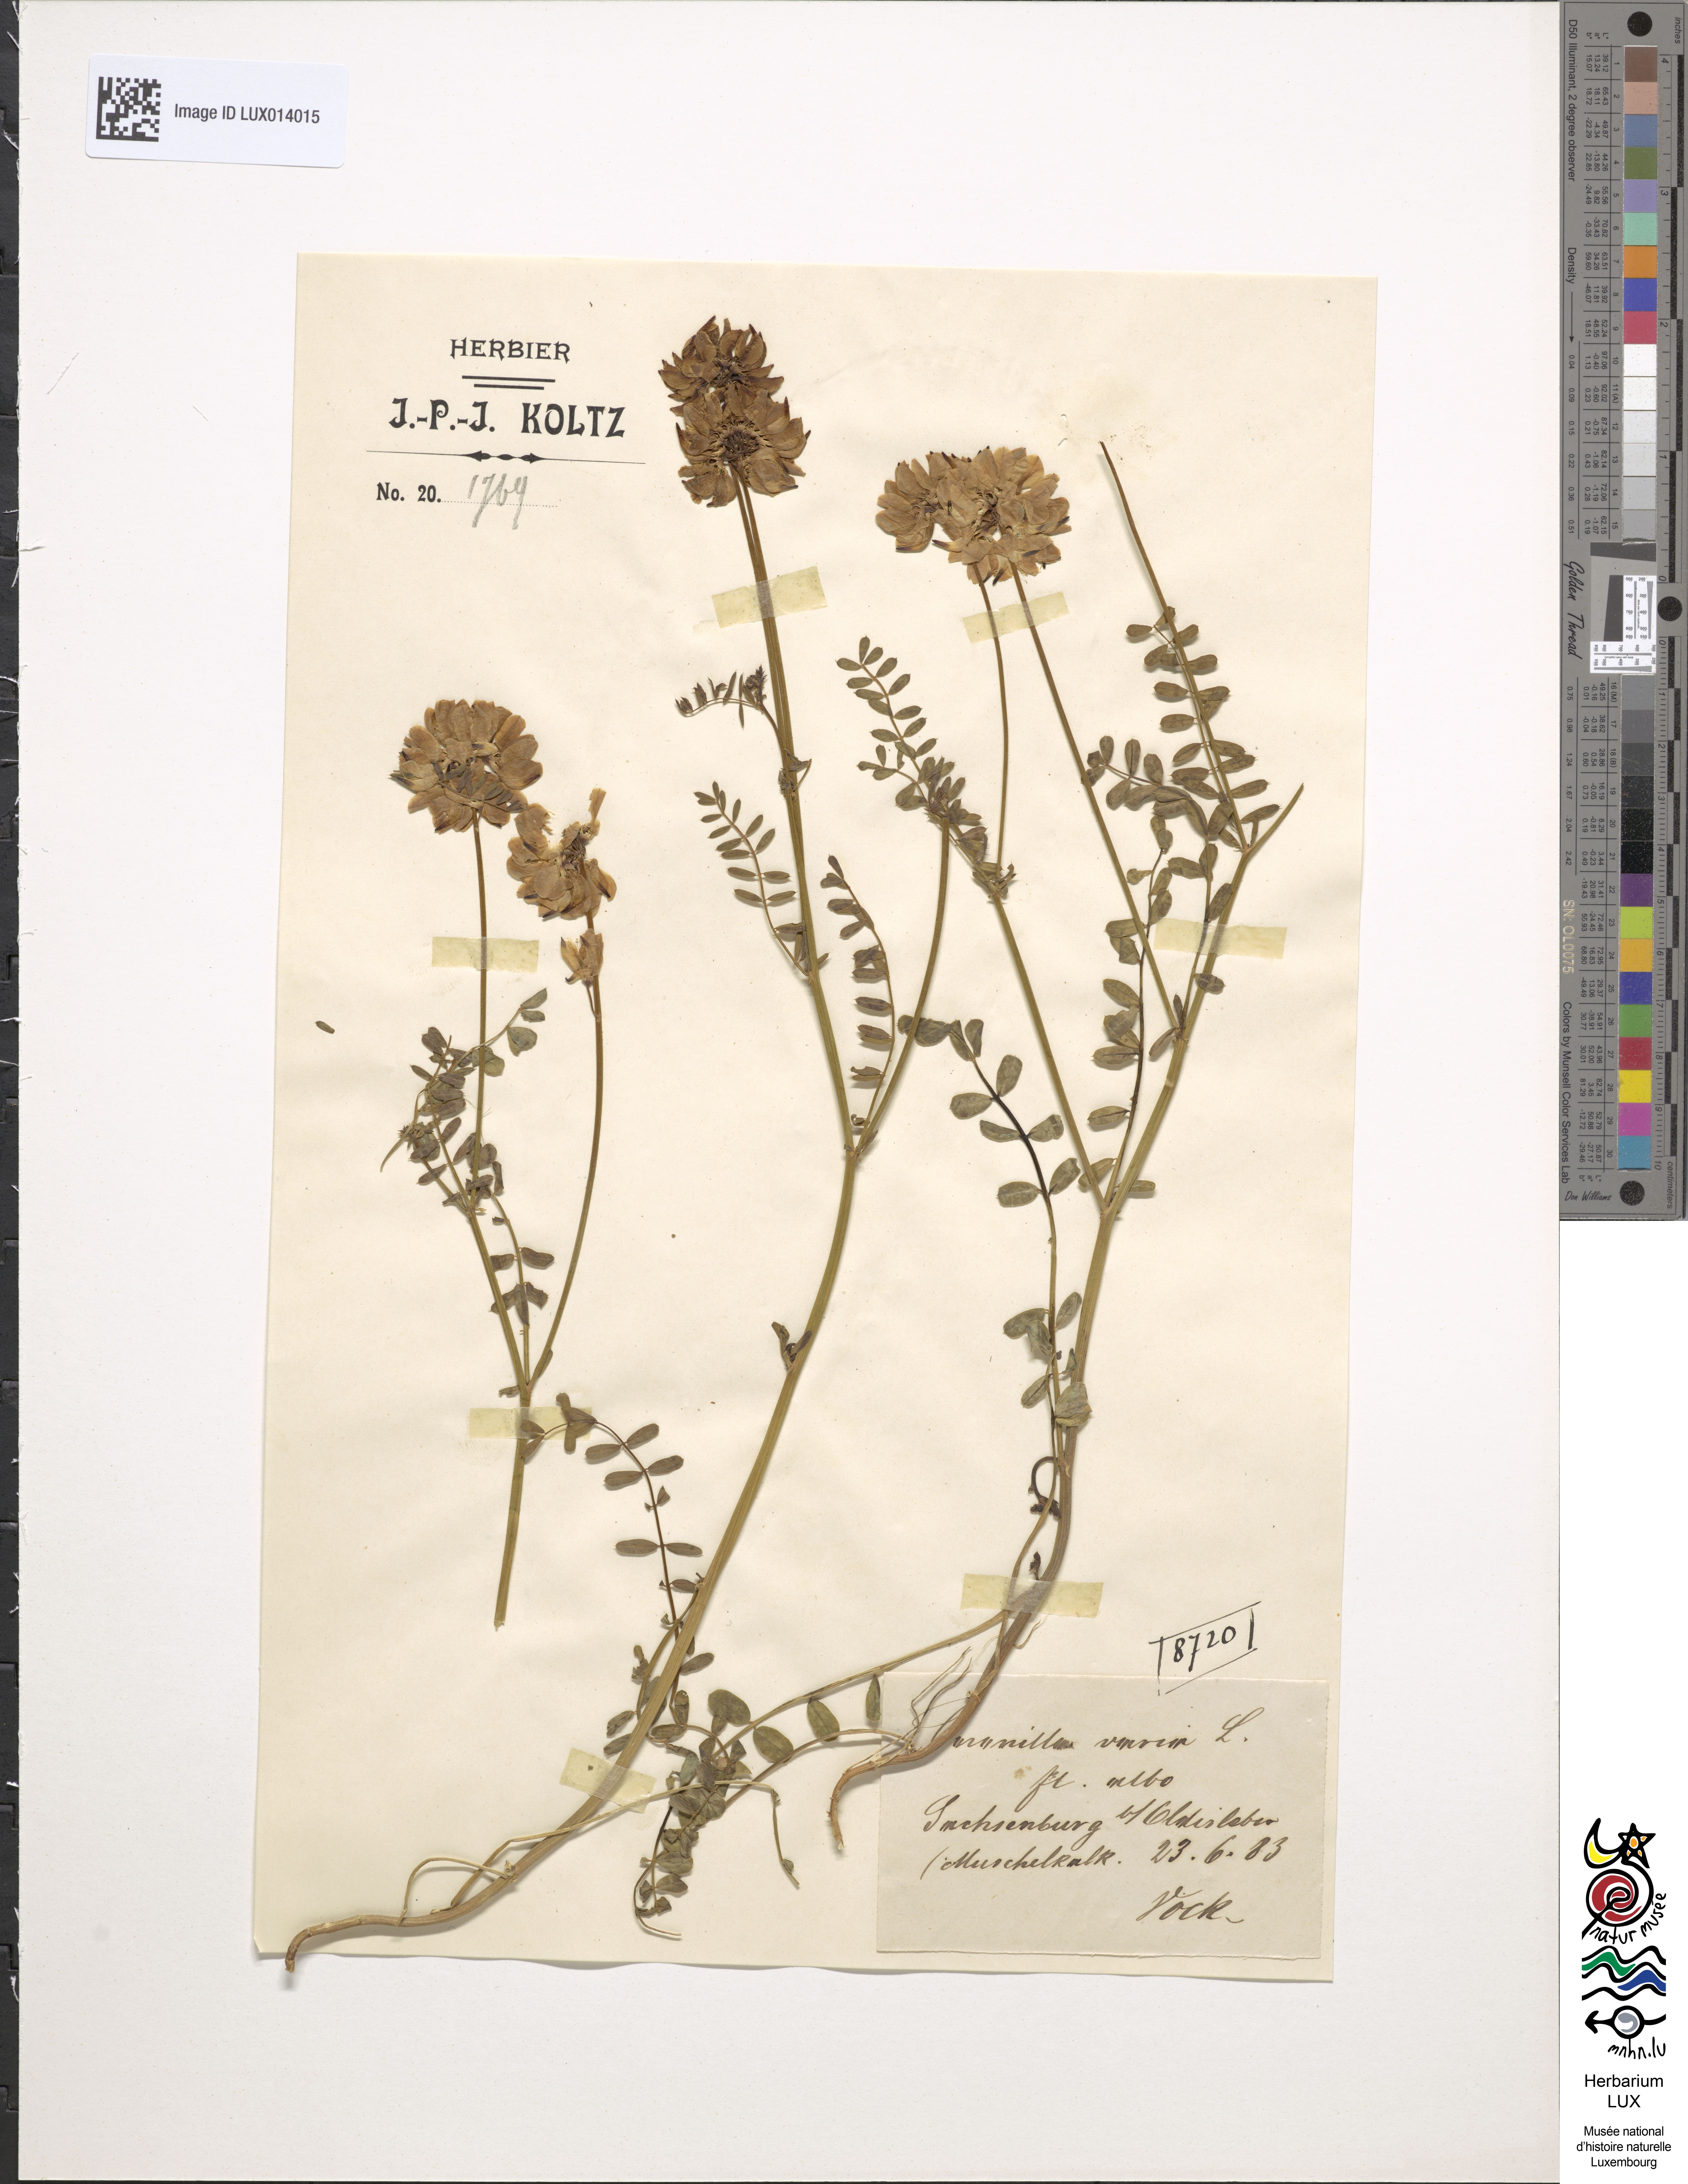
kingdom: Plantae
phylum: Tracheophyta
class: Magnoliopsida
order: Fabales
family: Fabaceae
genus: Coronilla
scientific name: Coronilla varia
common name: Crownvetch
